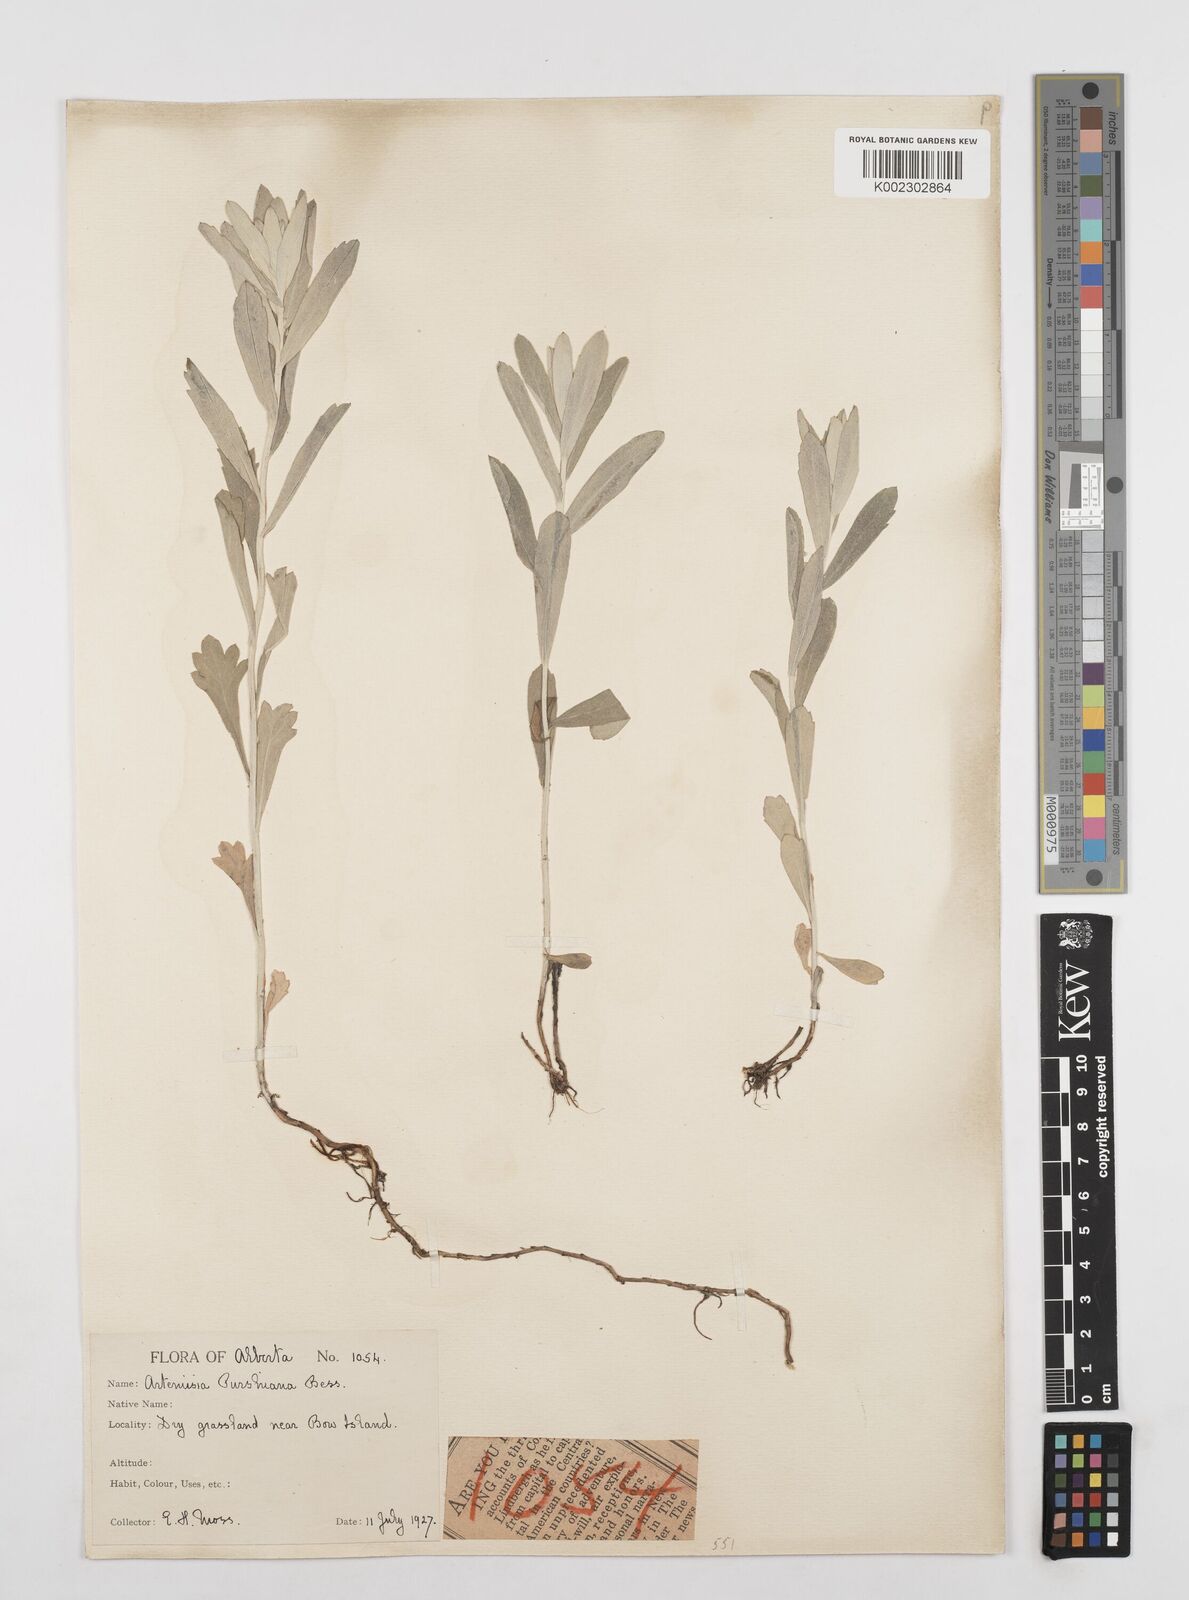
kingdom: Plantae
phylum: Tracheophyta
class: Magnoliopsida
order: Asterales
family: Asteraceae
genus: Artemisia
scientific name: Artemisia
